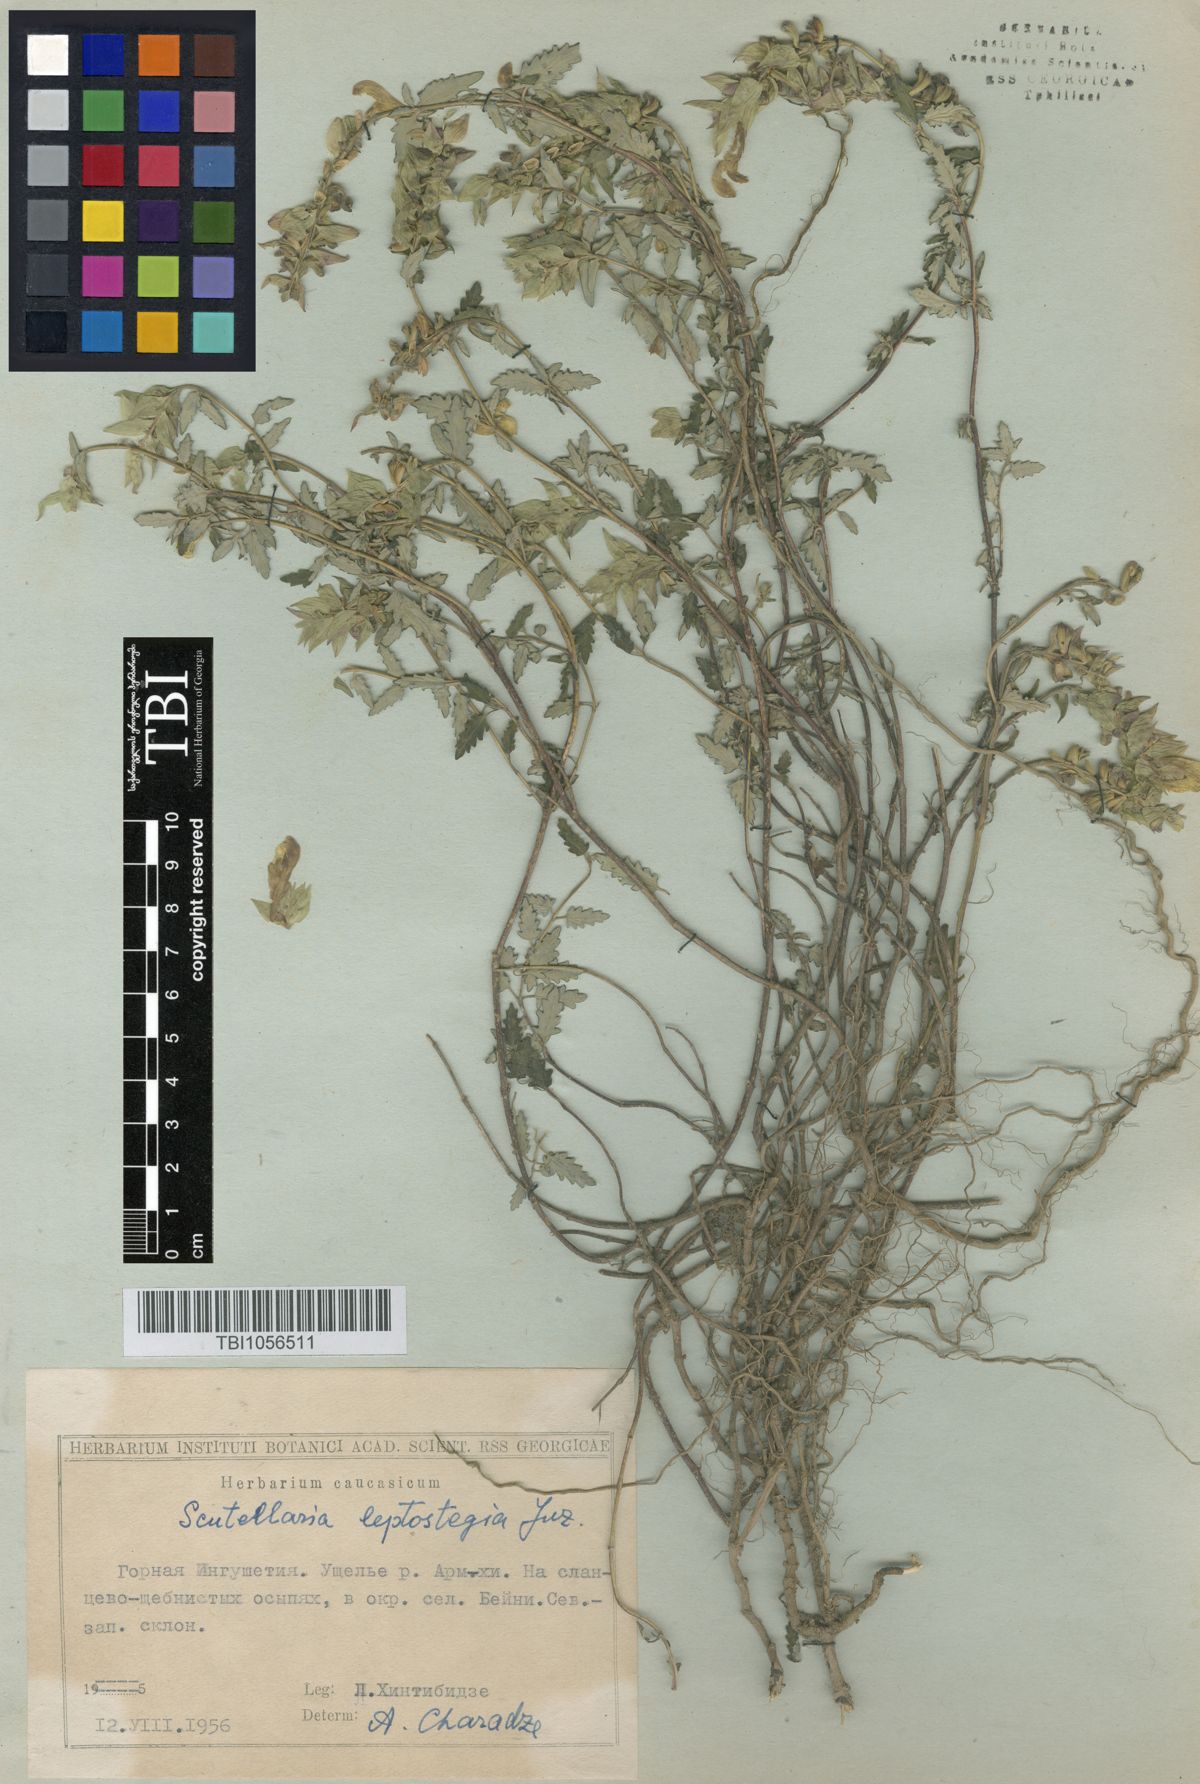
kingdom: Plantae
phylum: Tracheophyta
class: Magnoliopsida
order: Lamiales
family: Lamiaceae
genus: Scutellaria
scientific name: Scutellaria leptostegia
